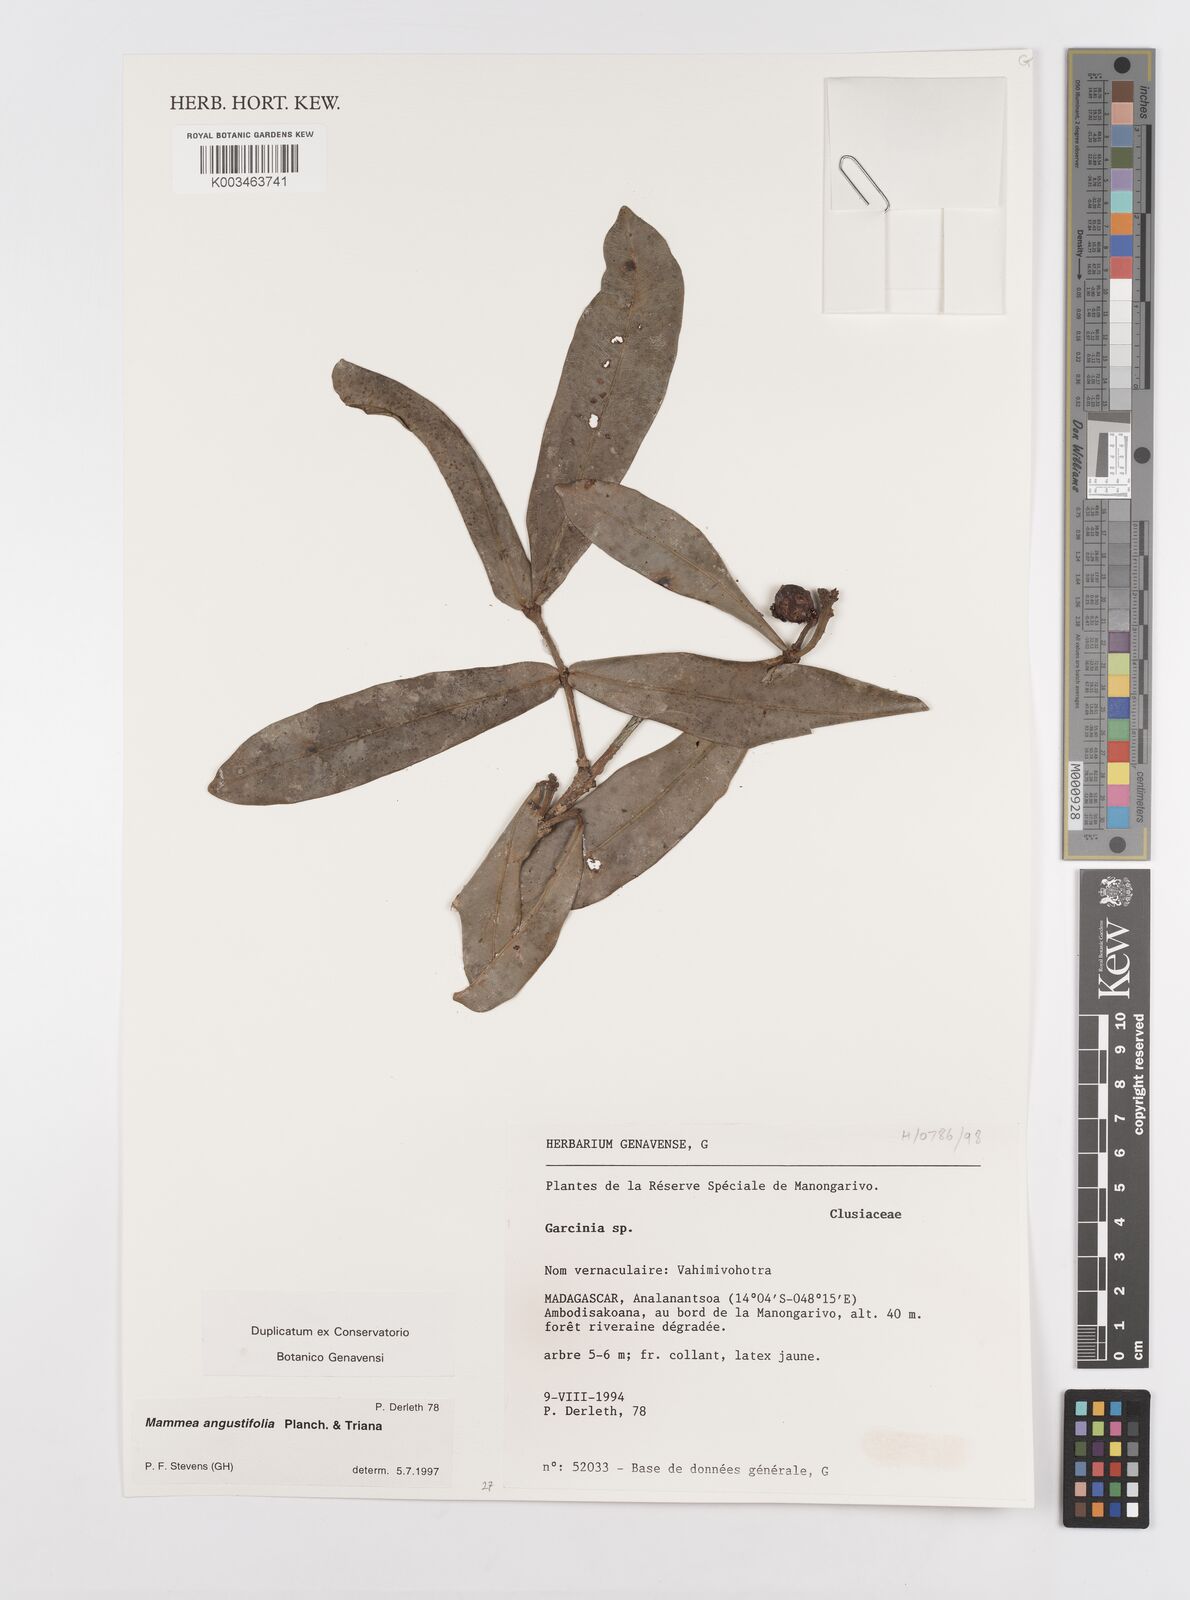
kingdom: Plantae
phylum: Tracheophyta
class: Magnoliopsida
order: Malpighiales
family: Calophyllaceae
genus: Mammea
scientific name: Mammea angustifolia
